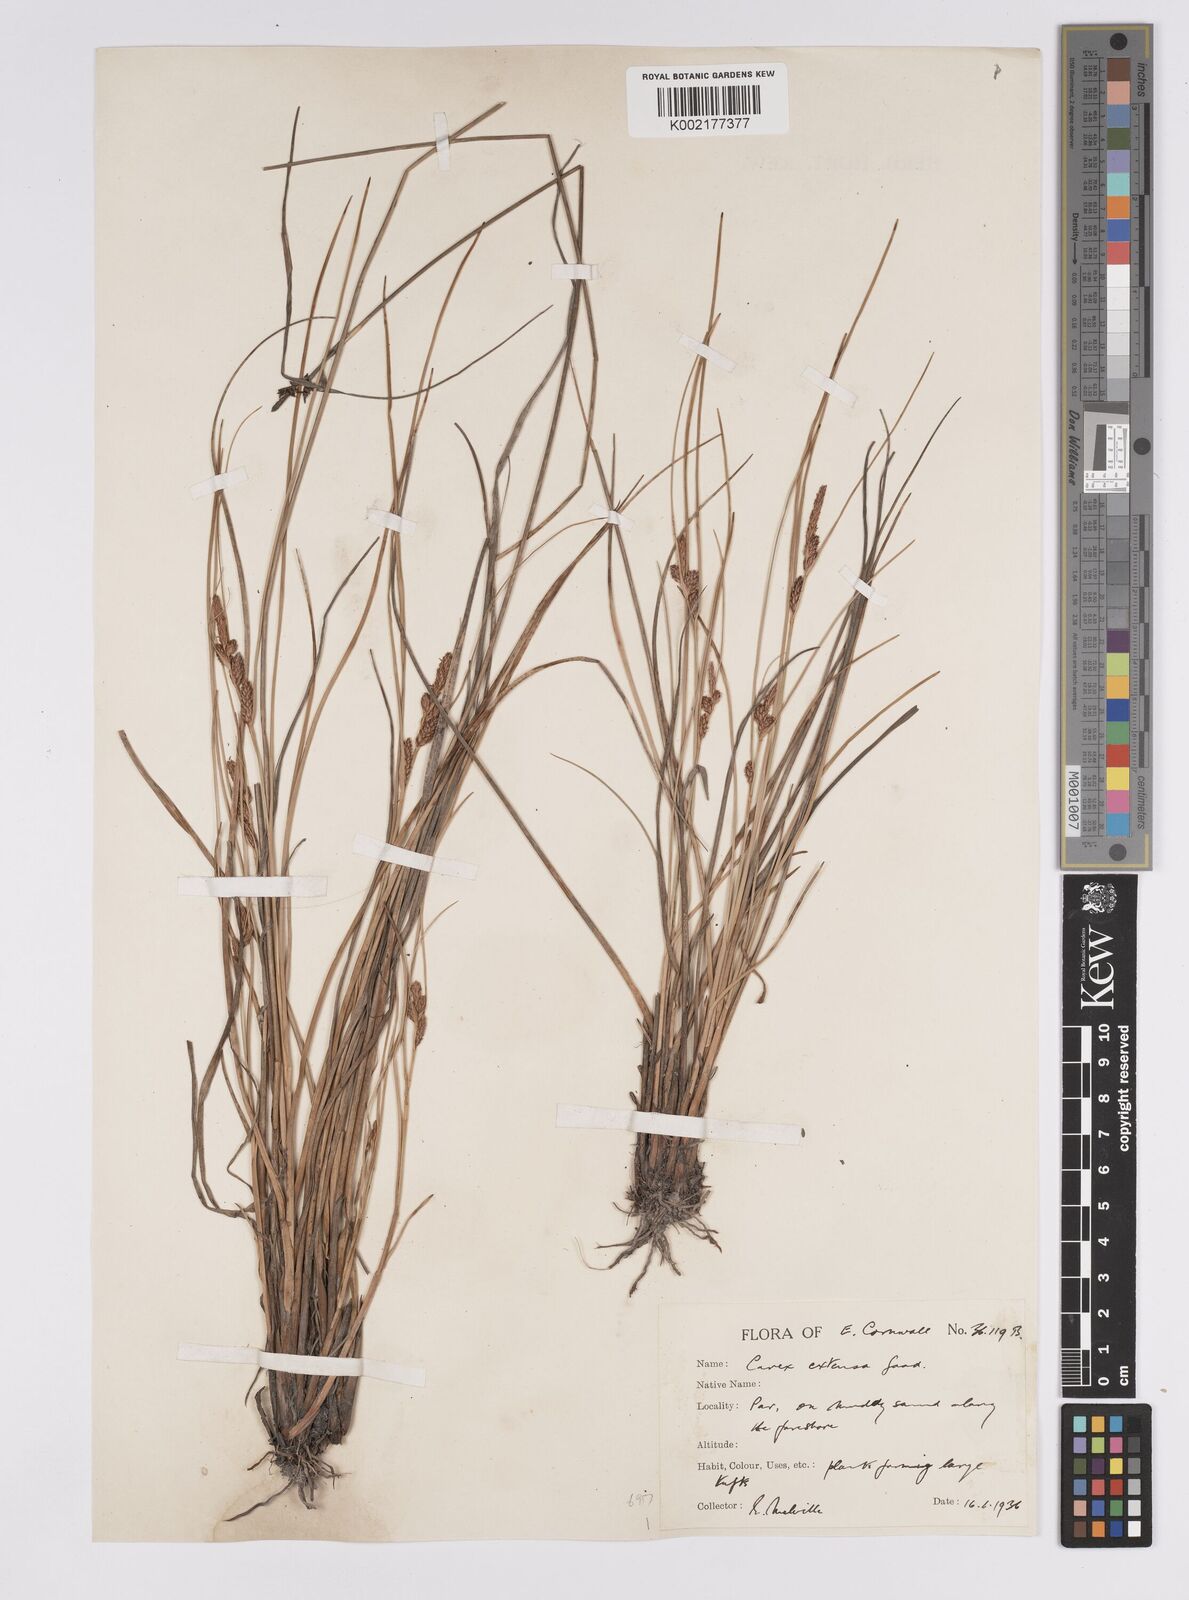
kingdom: Plantae
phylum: Tracheophyta
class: Liliopsida
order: Poales
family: Cyperaceae
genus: Carex
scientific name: Carex extensa
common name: Long-bracted sedge
